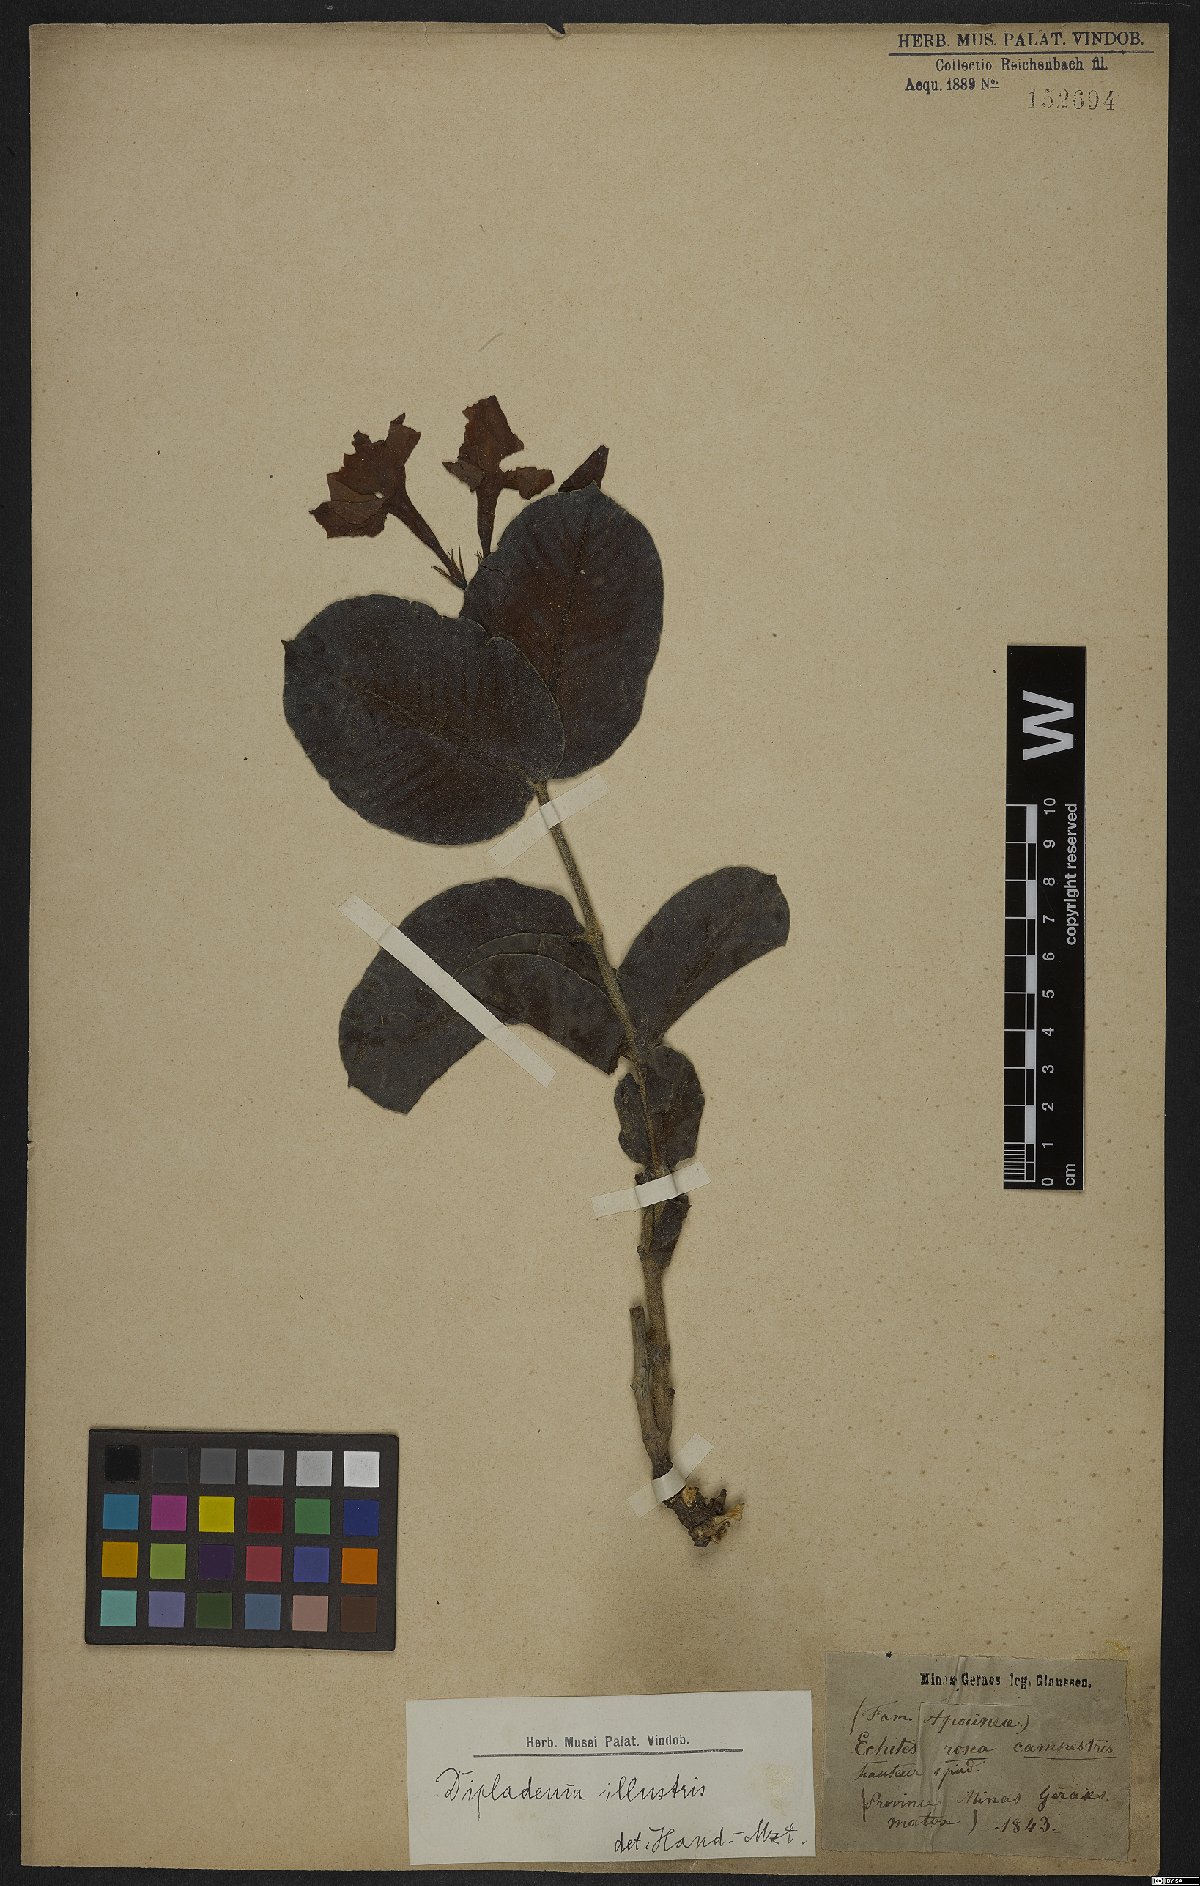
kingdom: Plantae
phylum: Tracheophyta
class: Magnoliopsida
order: Gentianales
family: Apocynaceae
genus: Mandevilla
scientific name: Mandevilla illustris
